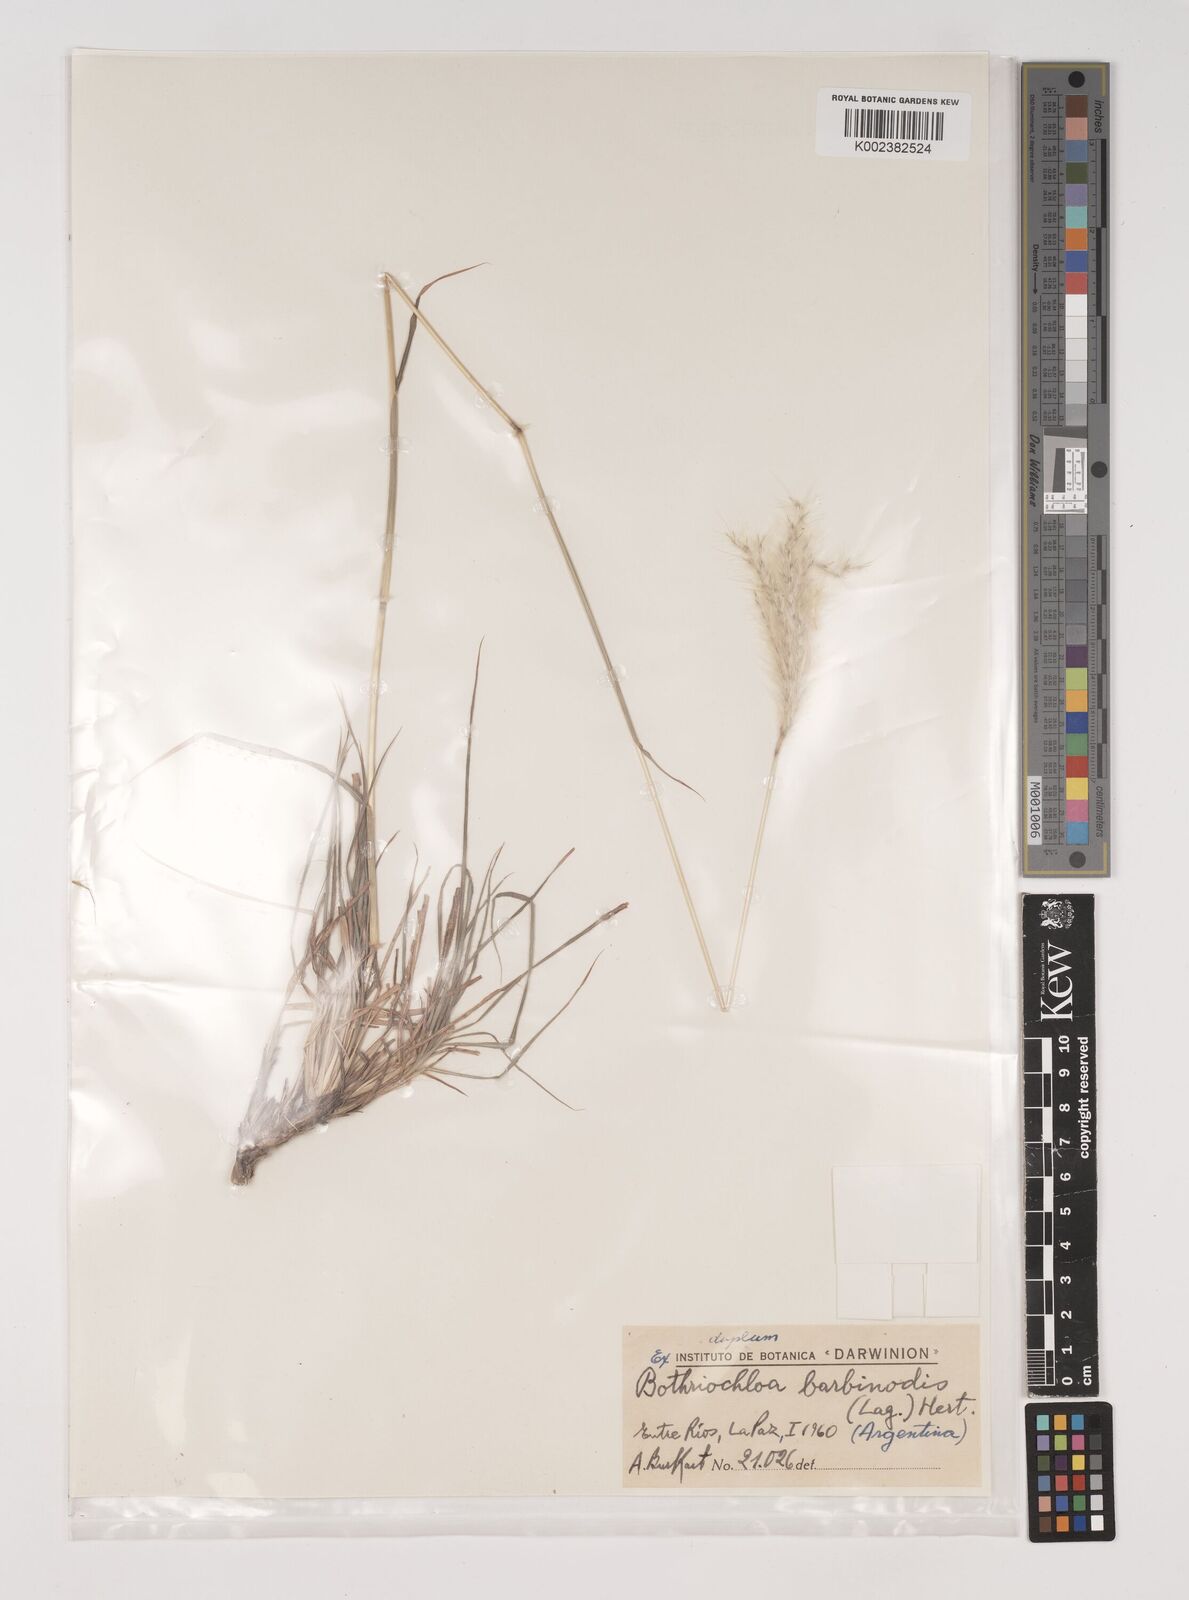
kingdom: Plantae
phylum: Tracheophyta
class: Liliopsida
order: Poales
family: Poaceae
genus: Bothriochloa
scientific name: Bothriochloa saccharoides
